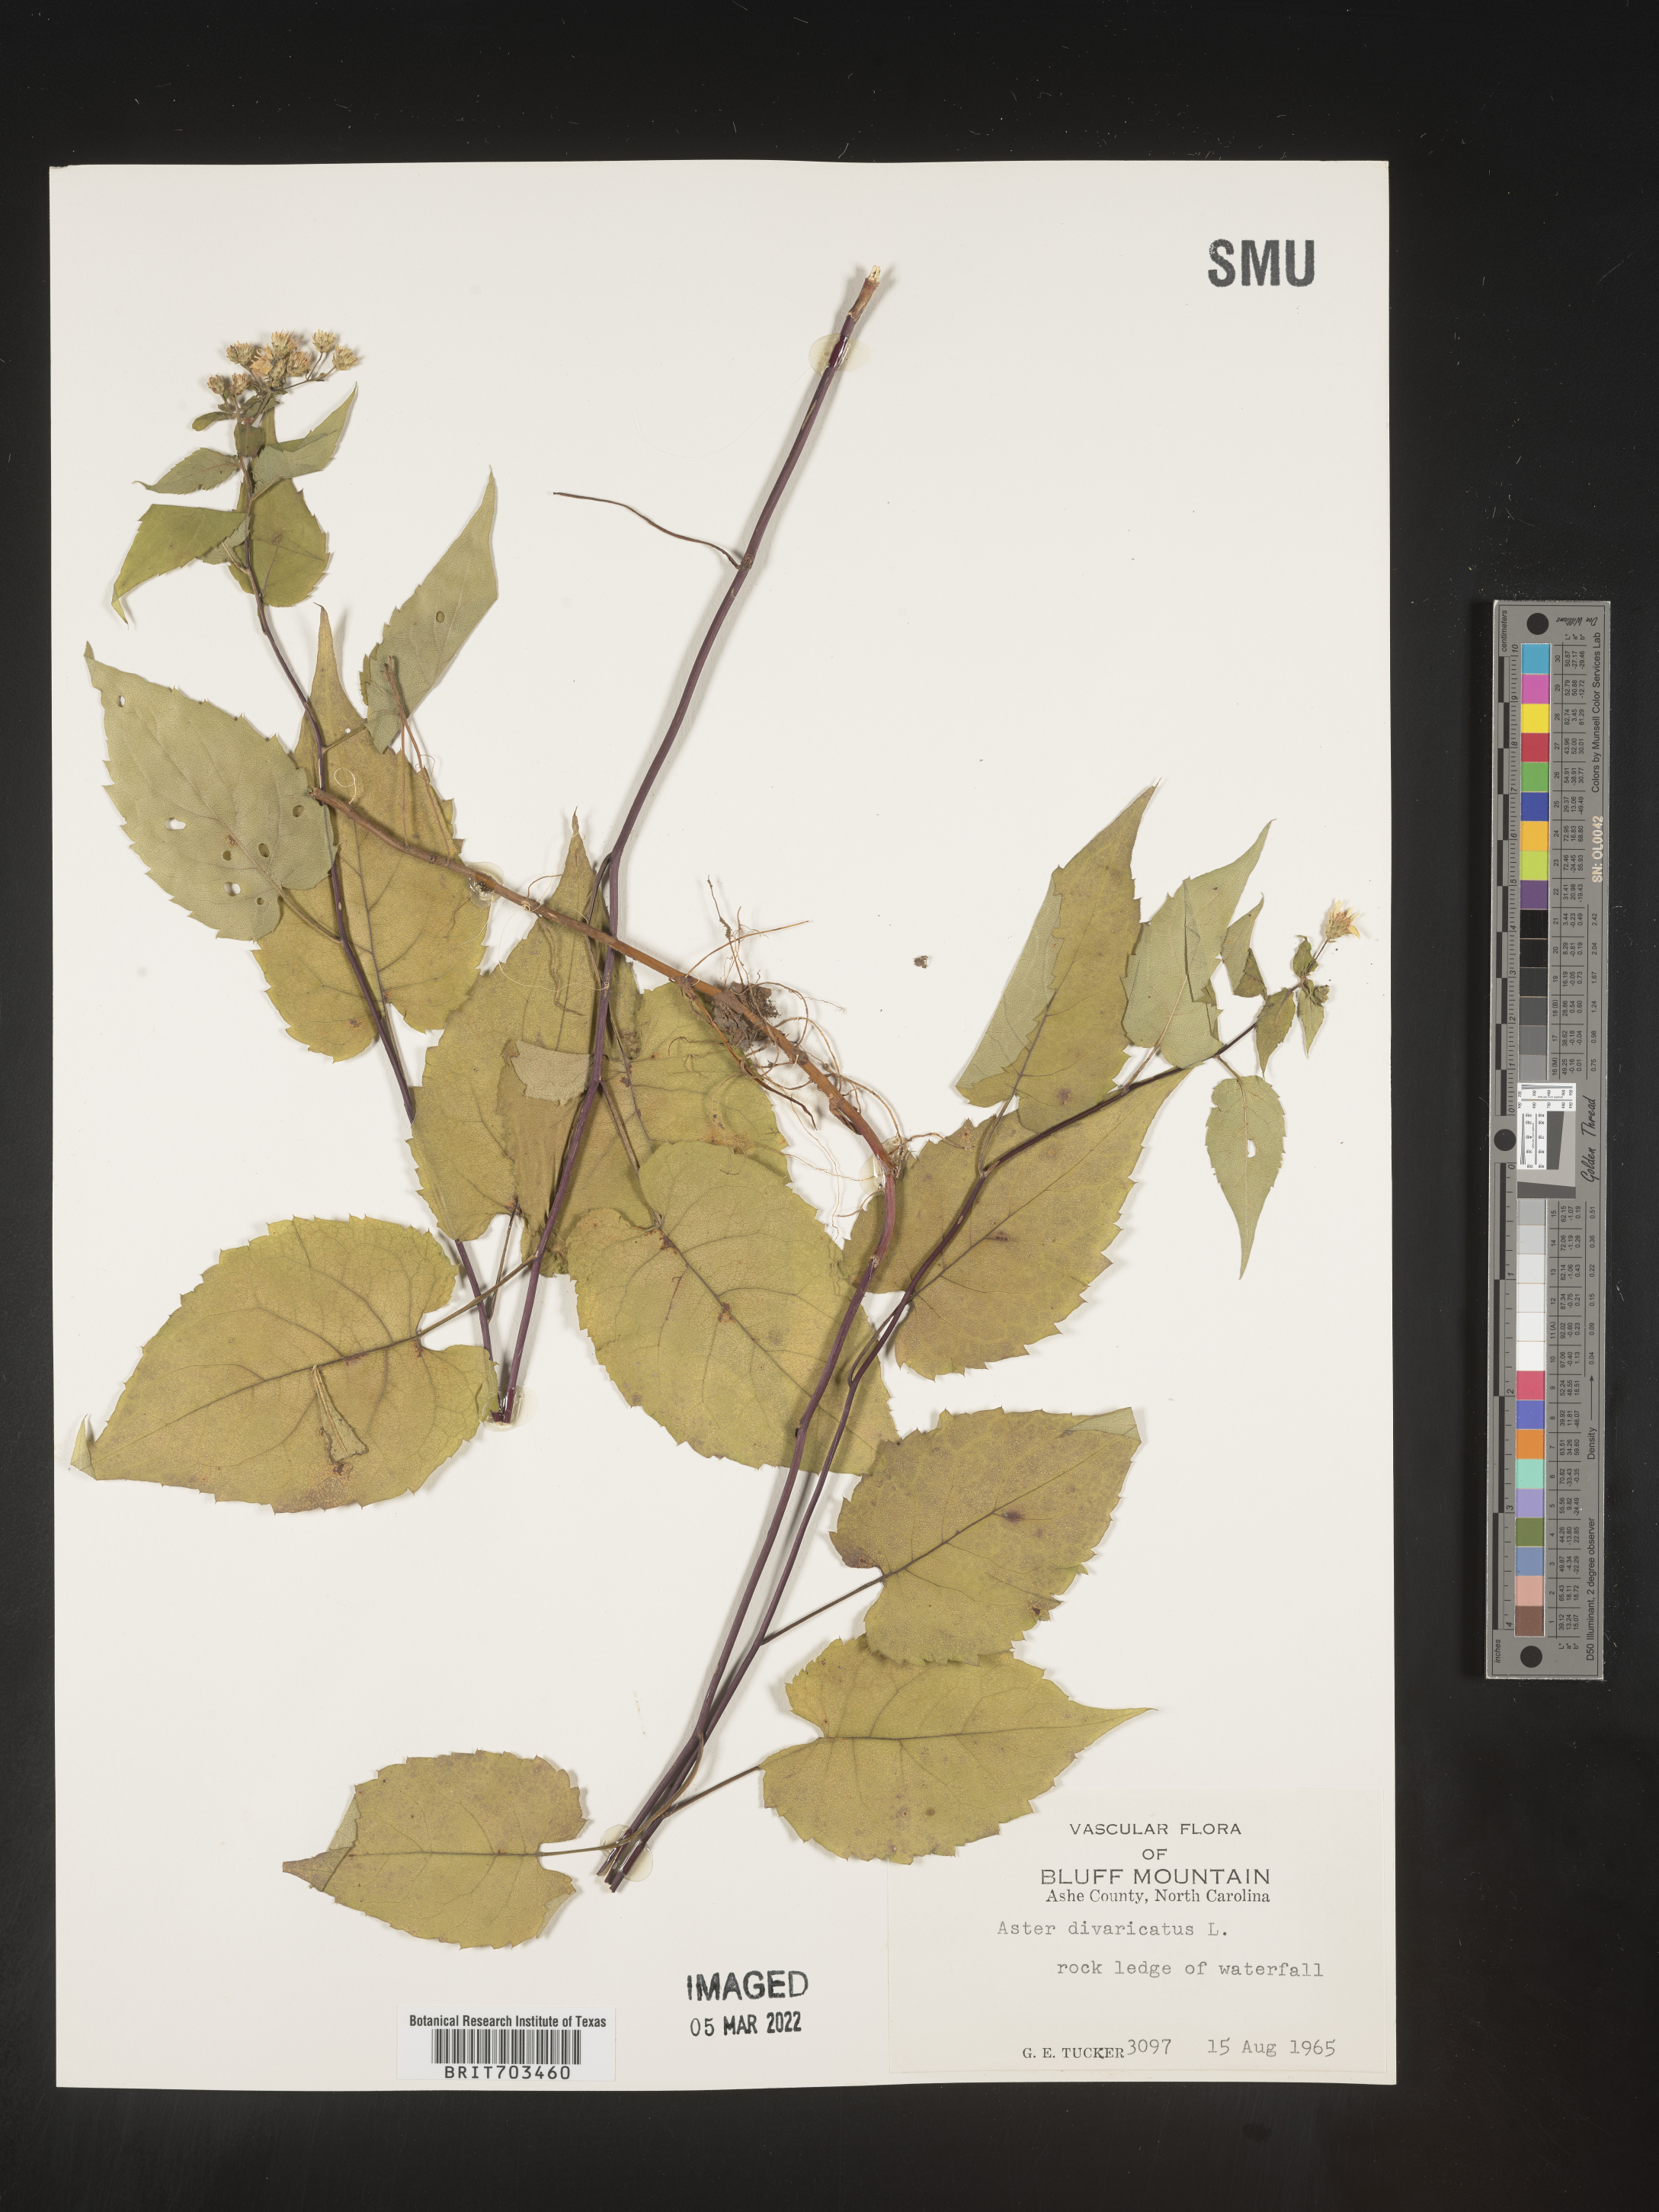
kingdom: Plantae
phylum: Tracheophyta
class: Magnoliopsida
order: Asterales
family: Asteraceae
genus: Eurybia
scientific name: Eurybia divaricata
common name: White wood aster
